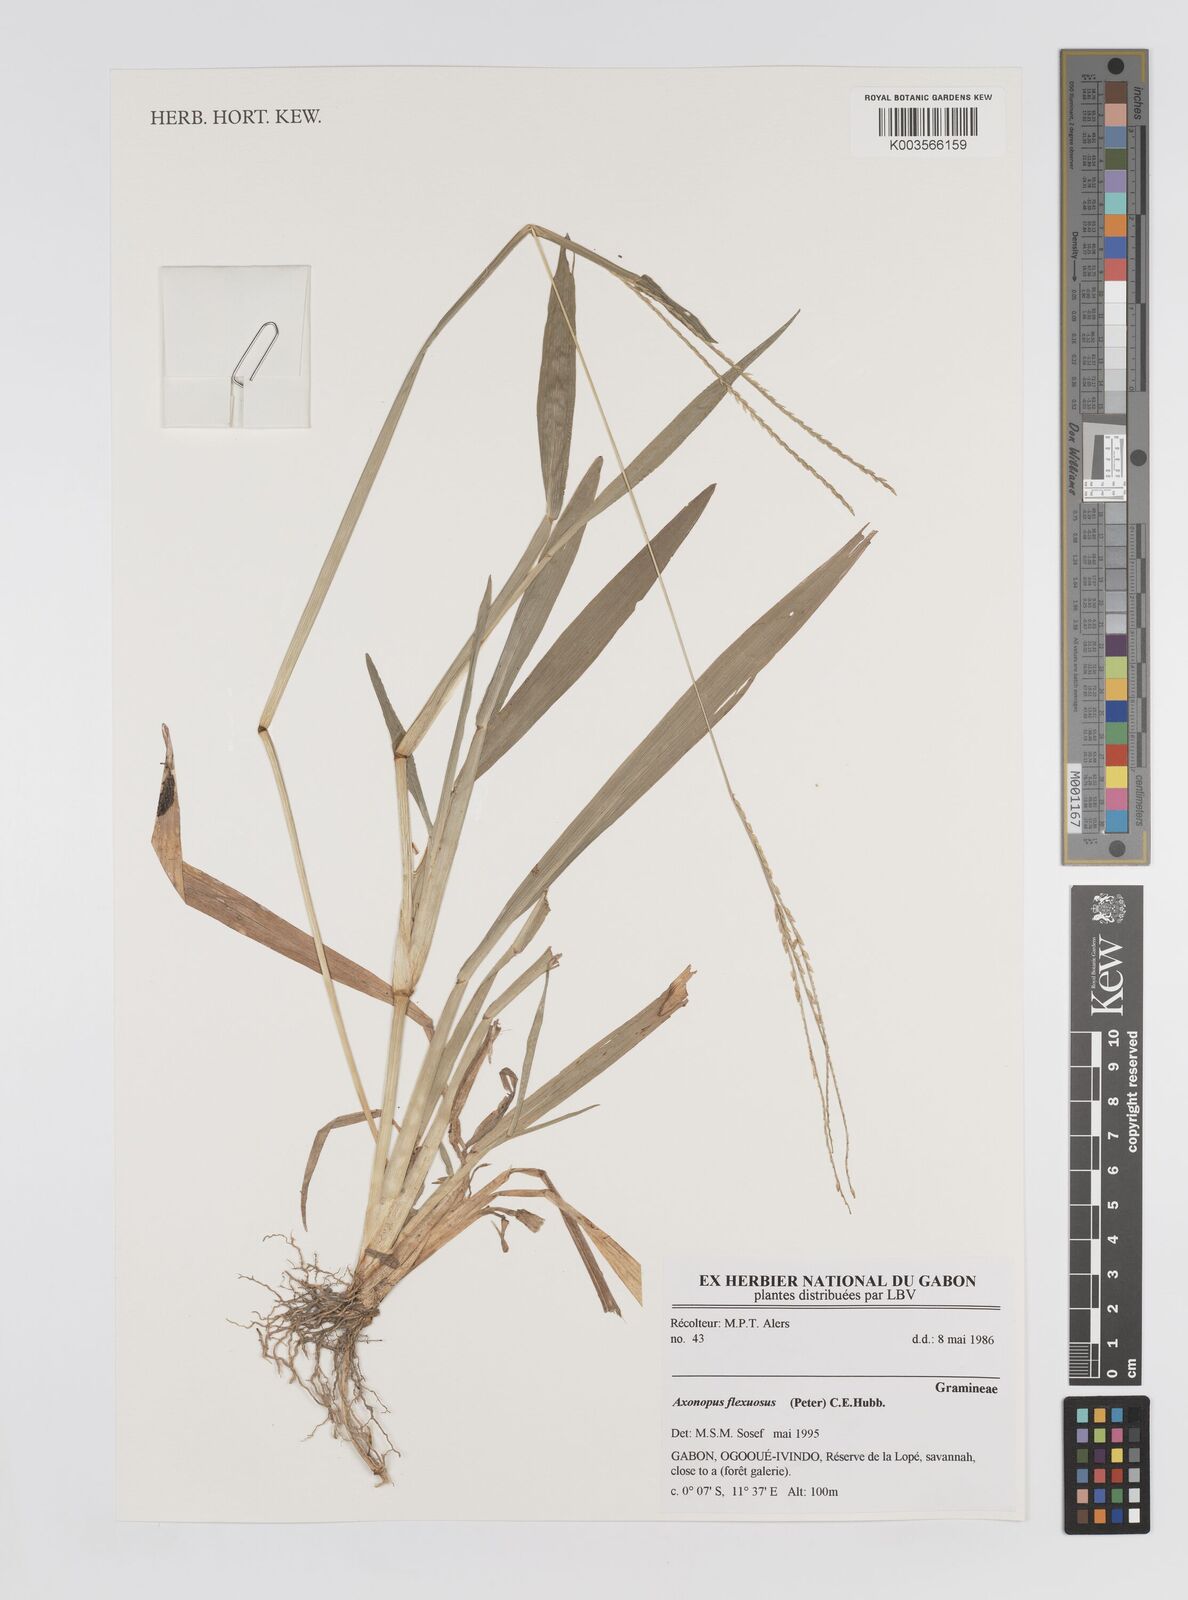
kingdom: Plantae
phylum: Tracheophyta
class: Liliopsida
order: Poales
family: Poaceae
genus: Axonopus
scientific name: Axonopus flexuosus
